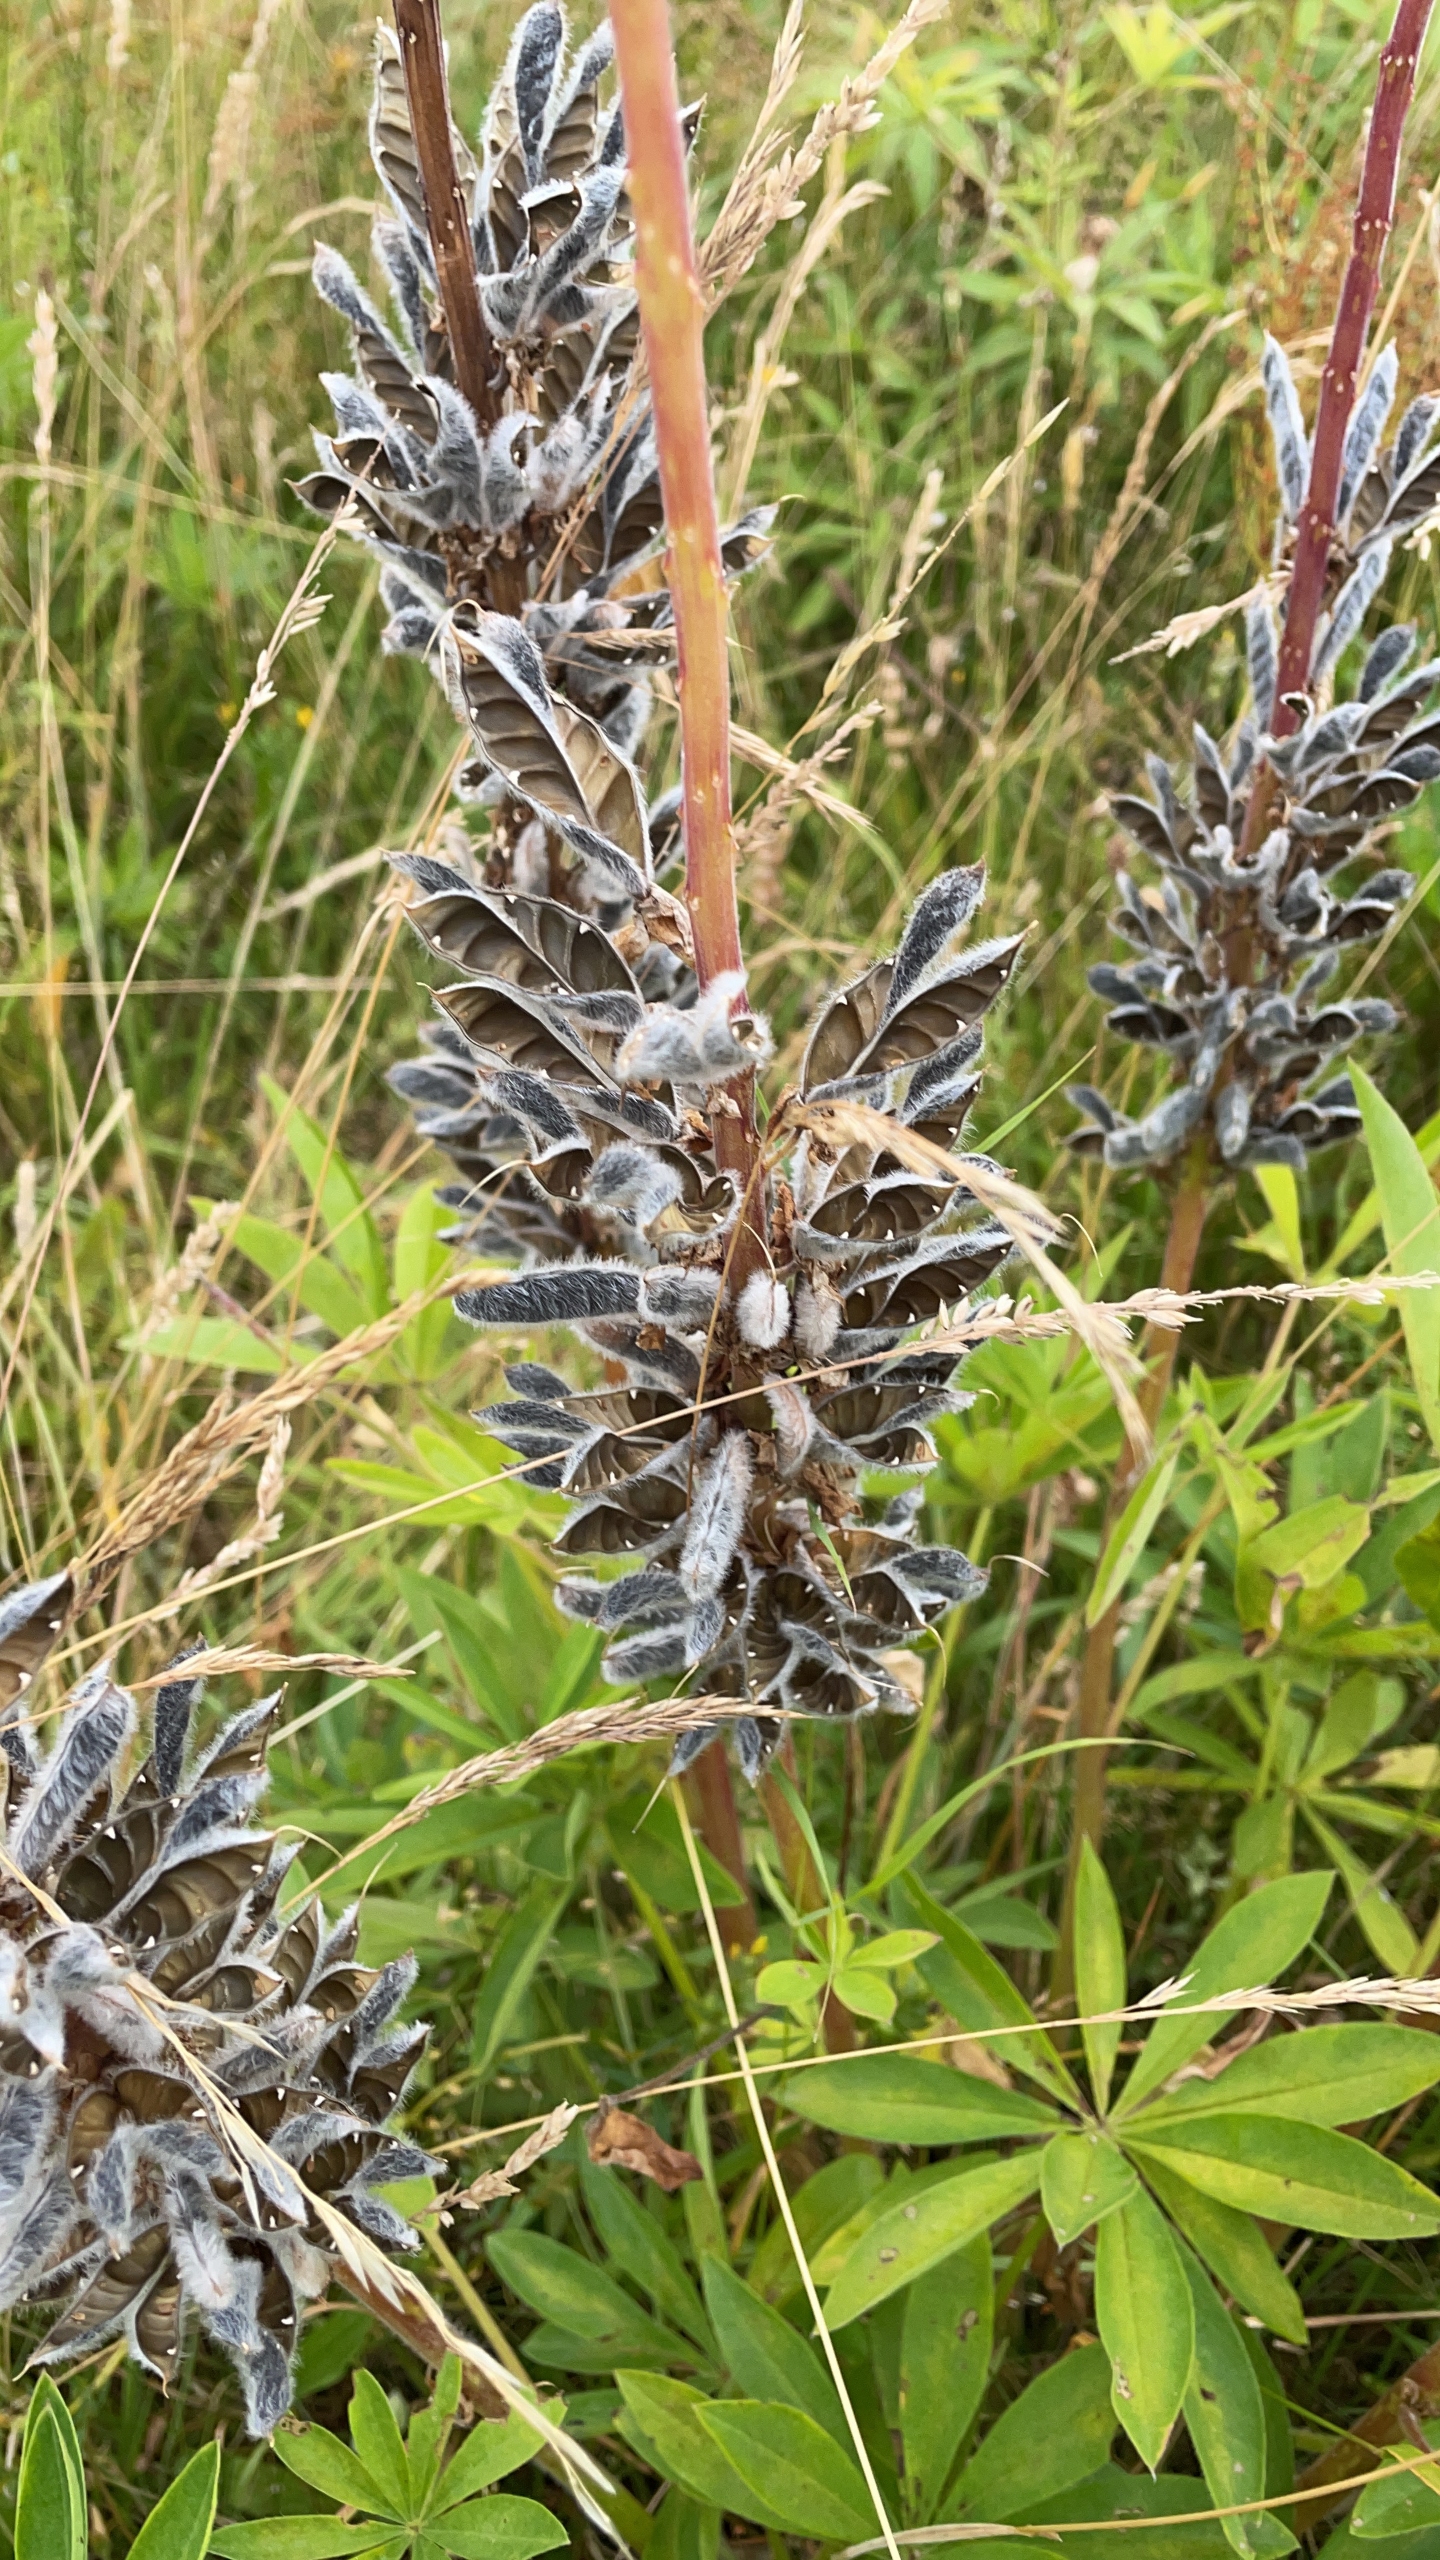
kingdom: Plantae
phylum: Tracheophyta
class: Magnoliopsida
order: Fabales
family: Fabaceae
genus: Lupinus
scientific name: Lupinus polyphyllus
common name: Mangebladet lupin
